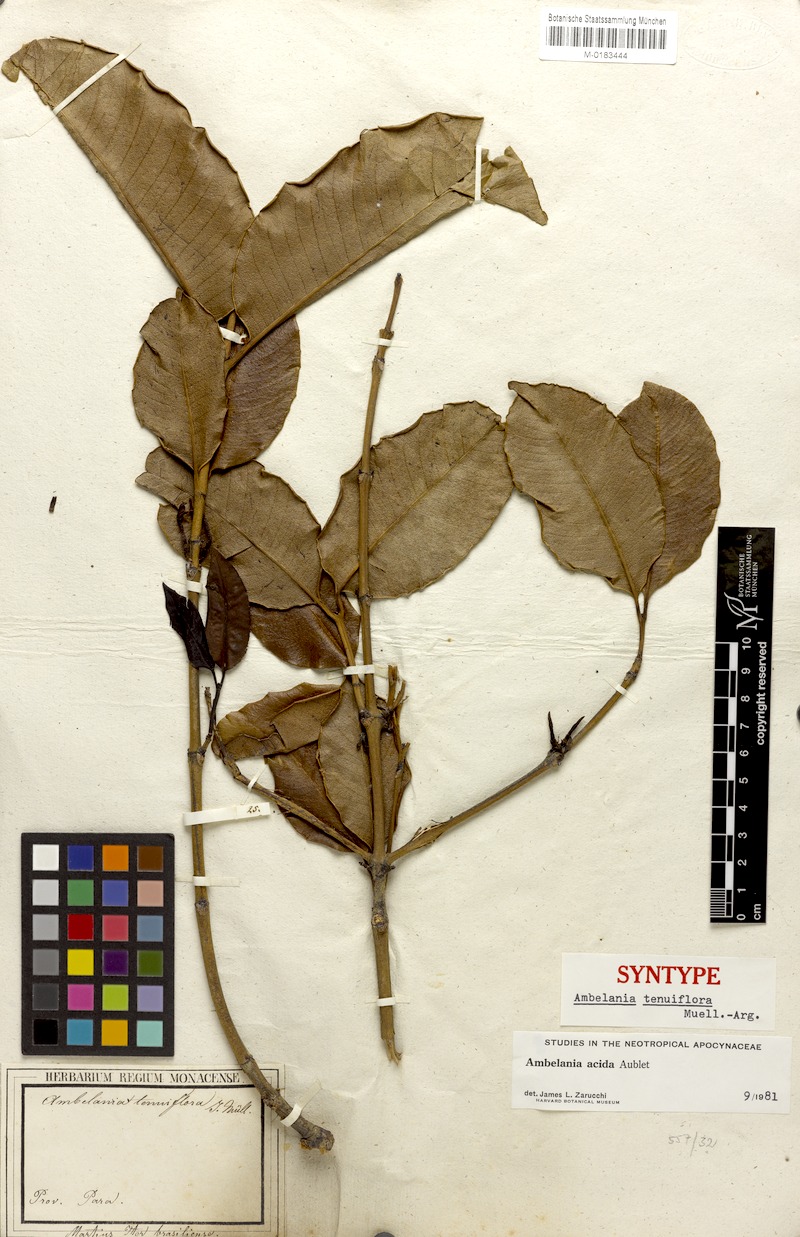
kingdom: Plantae
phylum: Tracheophyta
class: Magnoliopsida
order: Gentianales
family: Apocynaceae
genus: Ambelania
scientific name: Ambelania acida
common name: Bagasse
